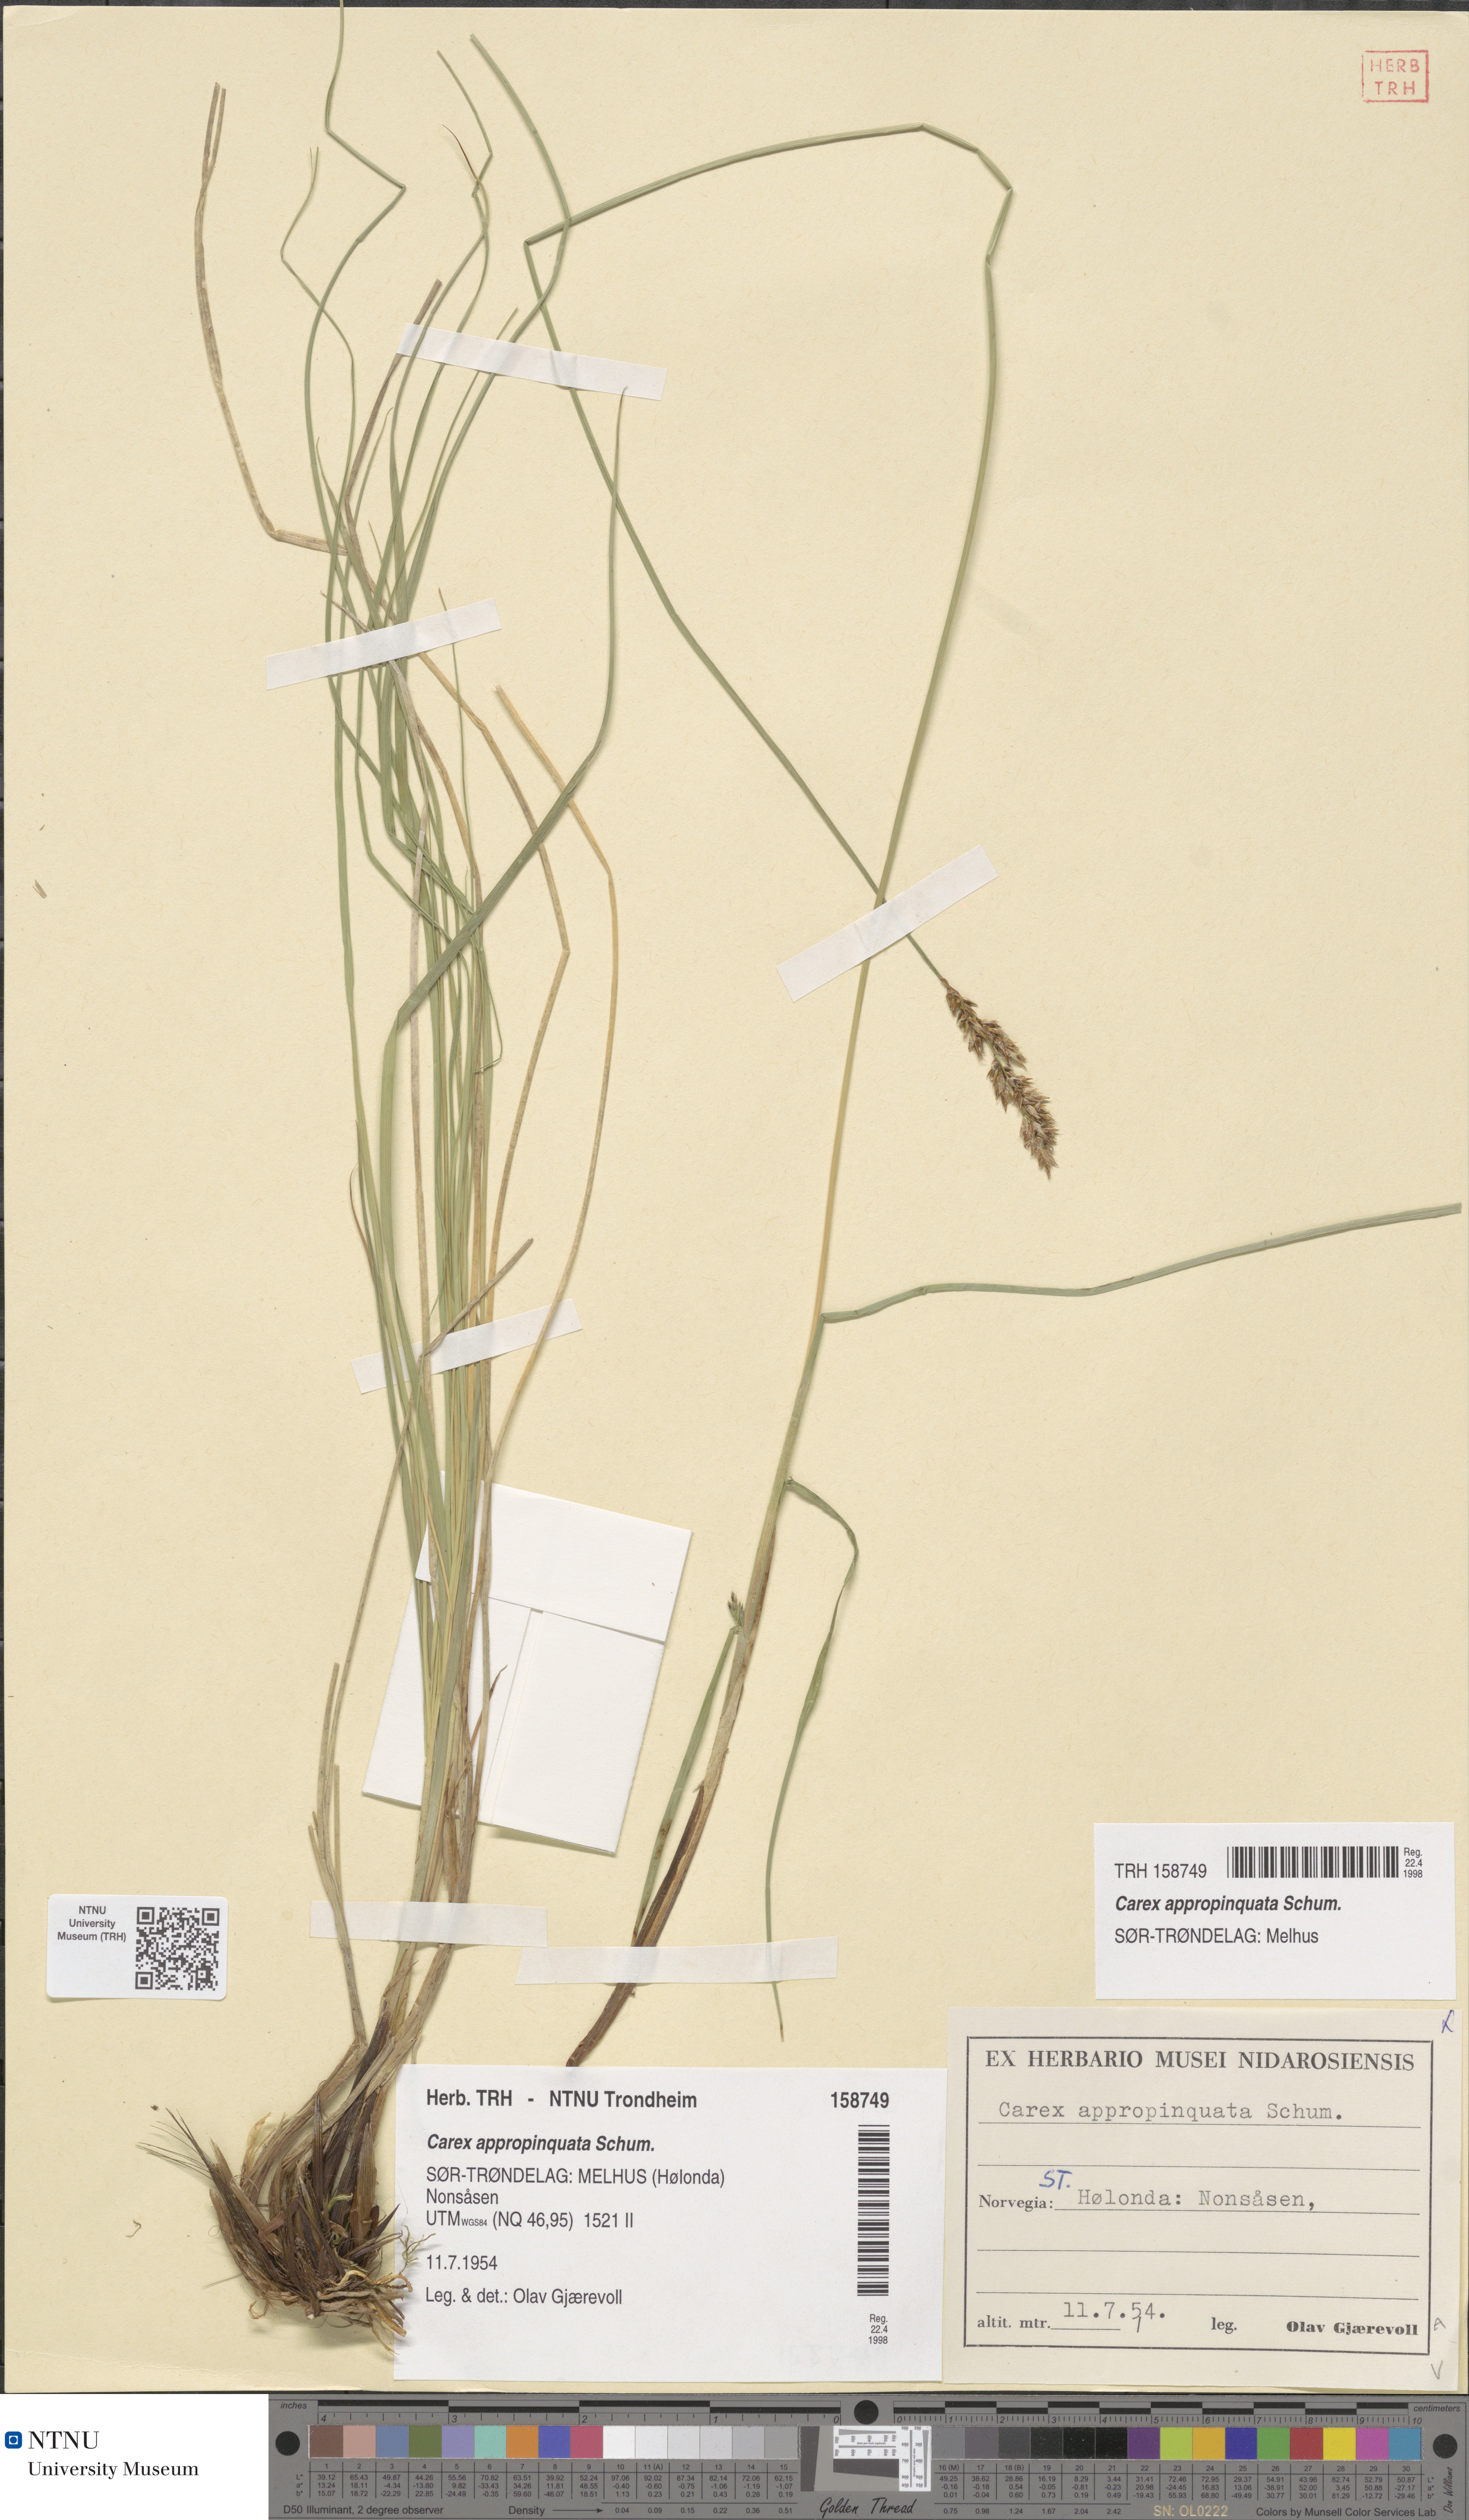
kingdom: Plantae
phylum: Tracheophyta
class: Liliopsida
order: Poales
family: Cyperaceae
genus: Carex
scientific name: Carex appropinquata
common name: Fibrous tussock-sedge
